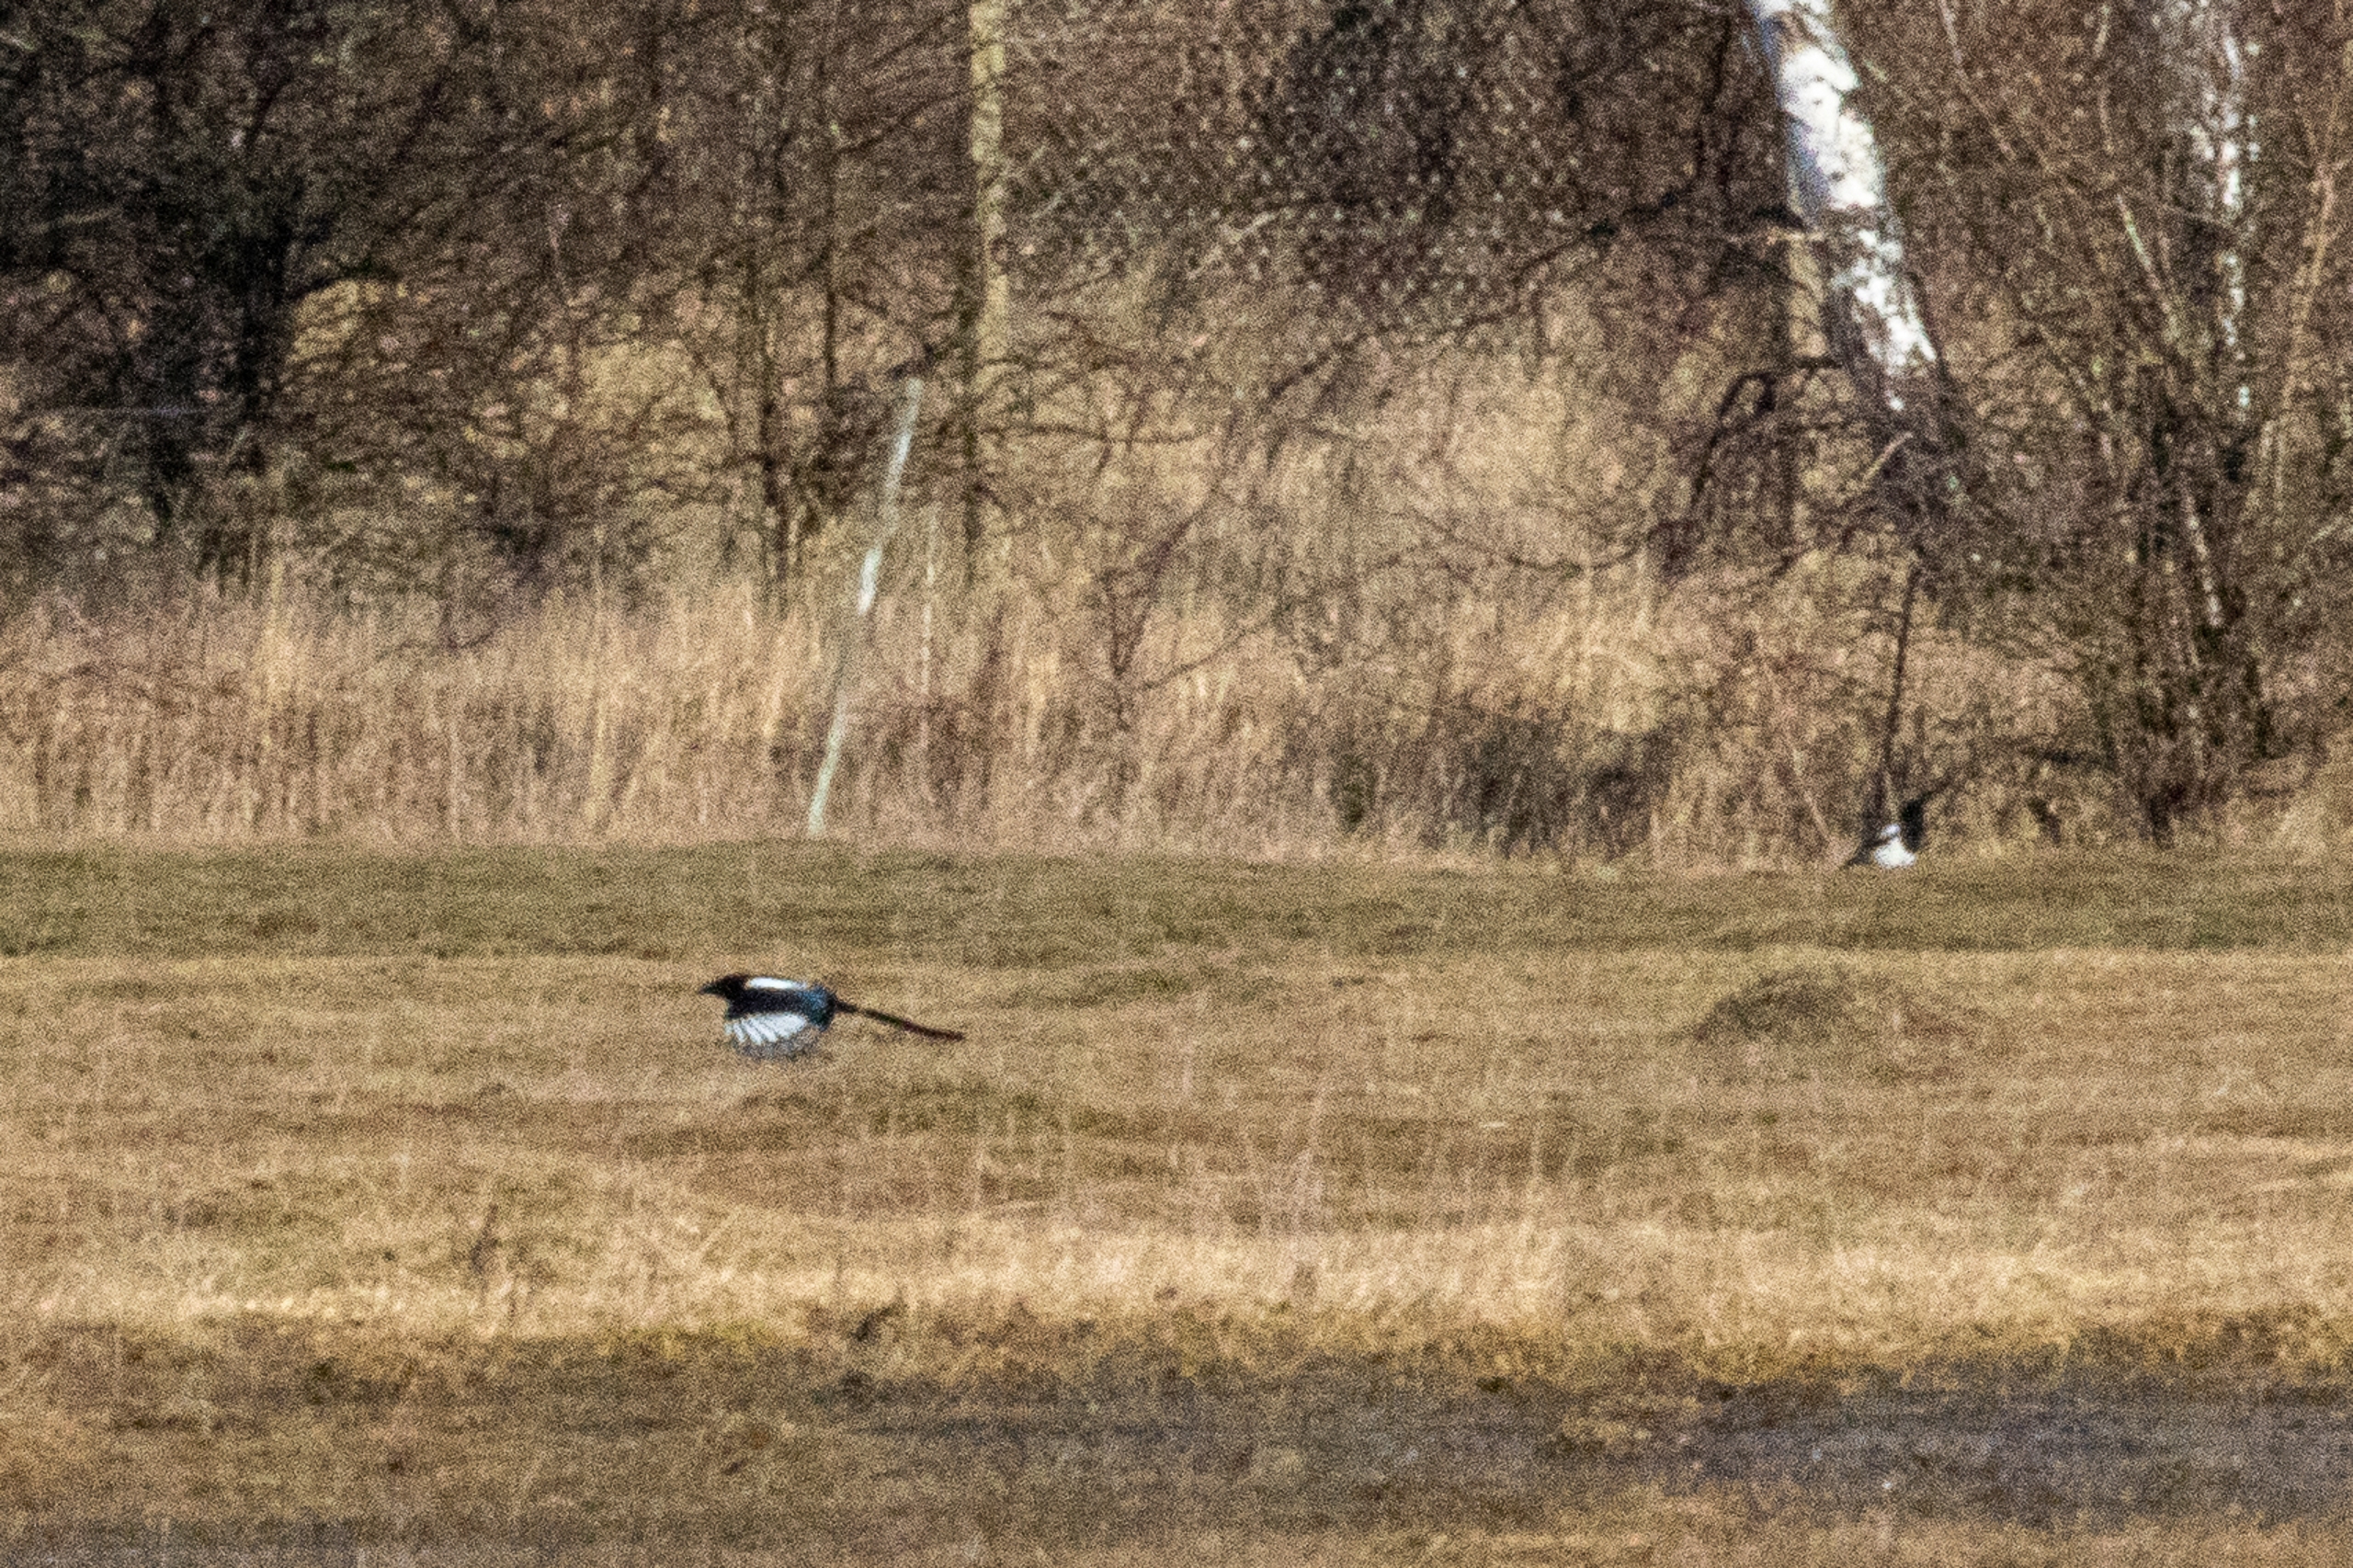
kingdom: Animalia
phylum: Chordata
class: Aves
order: Passeriformes
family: Corvidae
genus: Pica
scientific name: Pica pica
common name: Husskade
